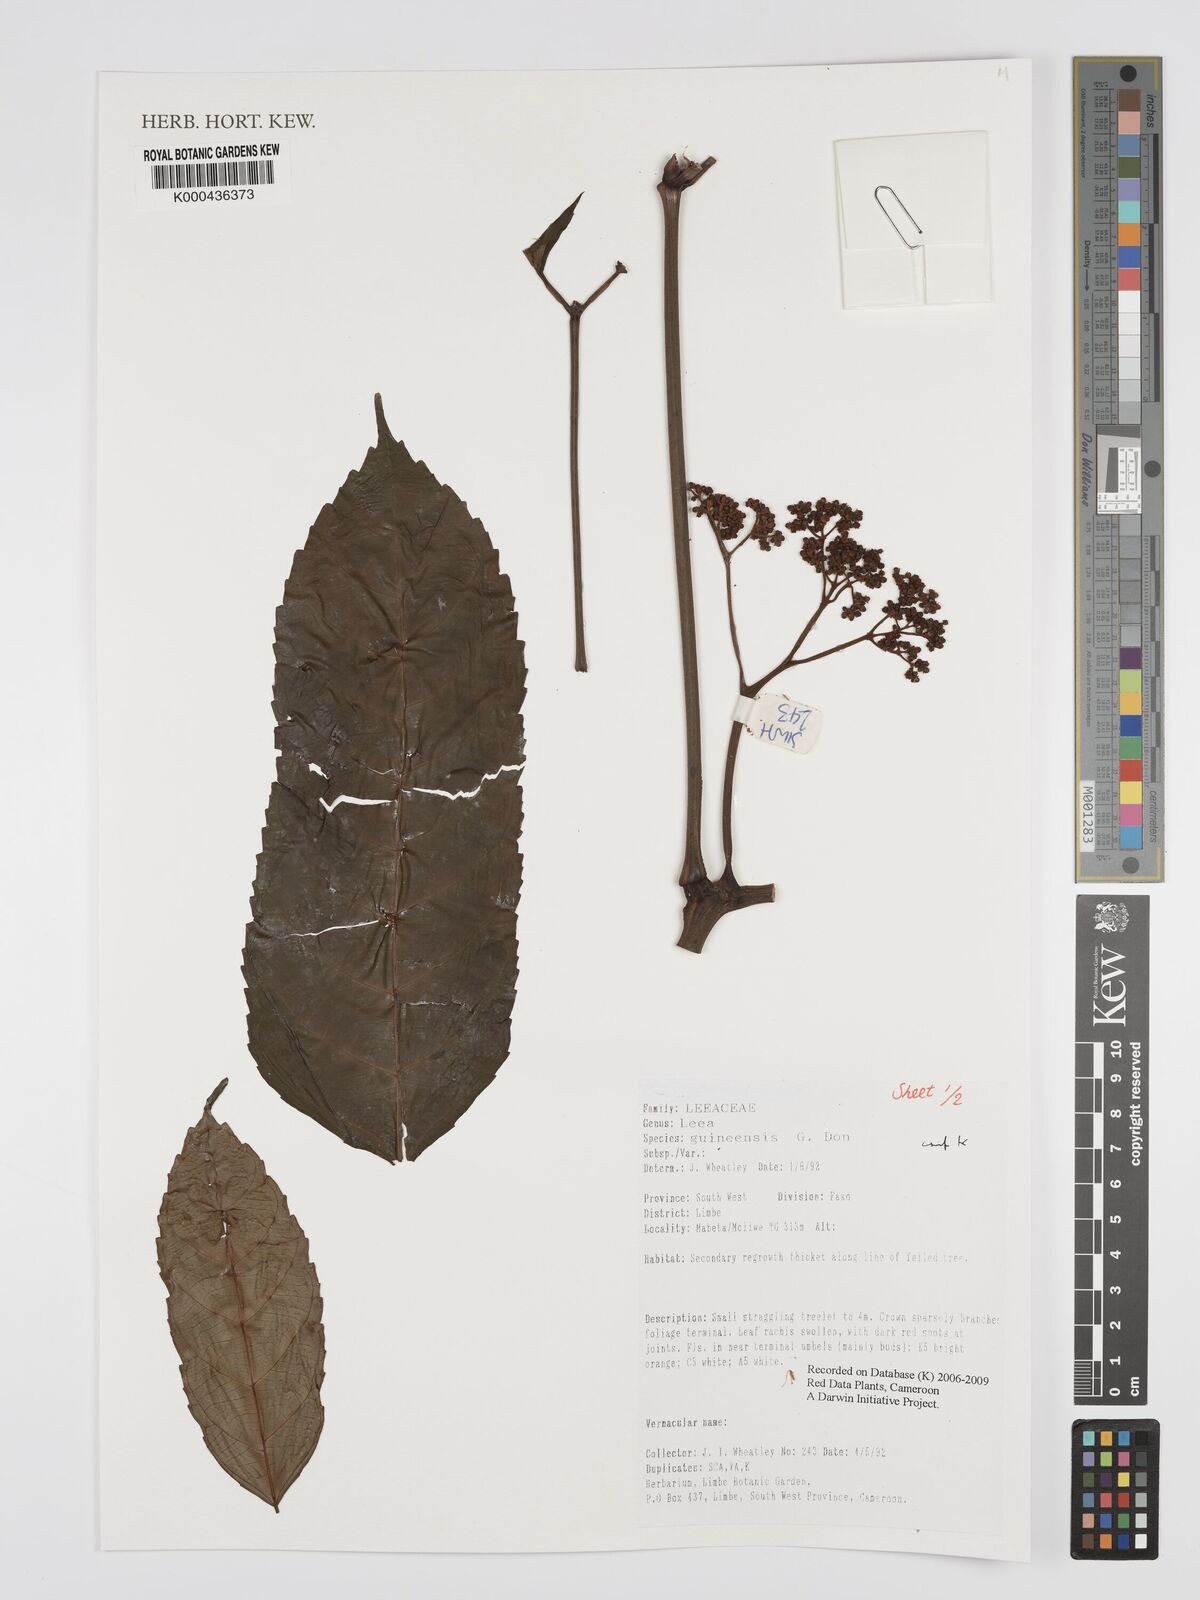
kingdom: Plantae
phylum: Tracheophyta
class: Magnoliopsida
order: Vitales
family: Vitaceae
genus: Leea
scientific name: Leea guineensis
